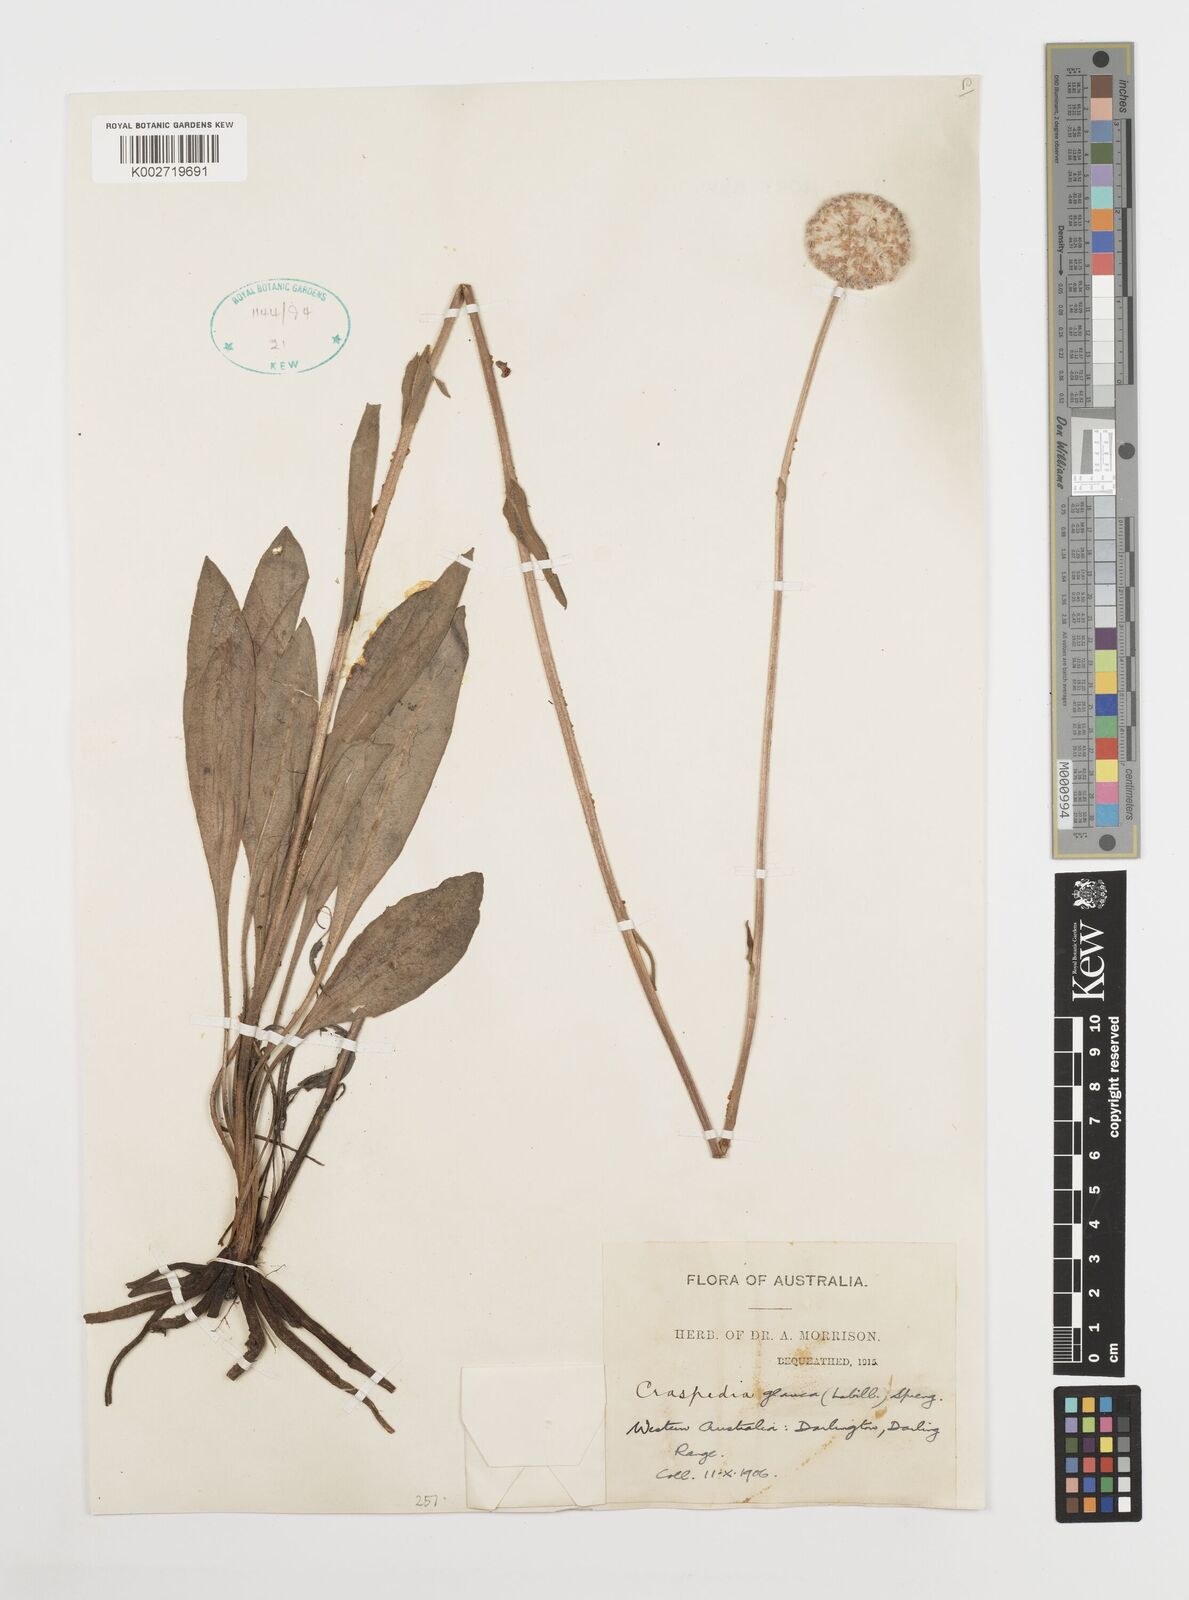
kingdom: Plantae
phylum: Tracheophyta
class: Magnoliopsida
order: Asterales
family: Asteraceae
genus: Craspedia
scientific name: Craspedia glauca
